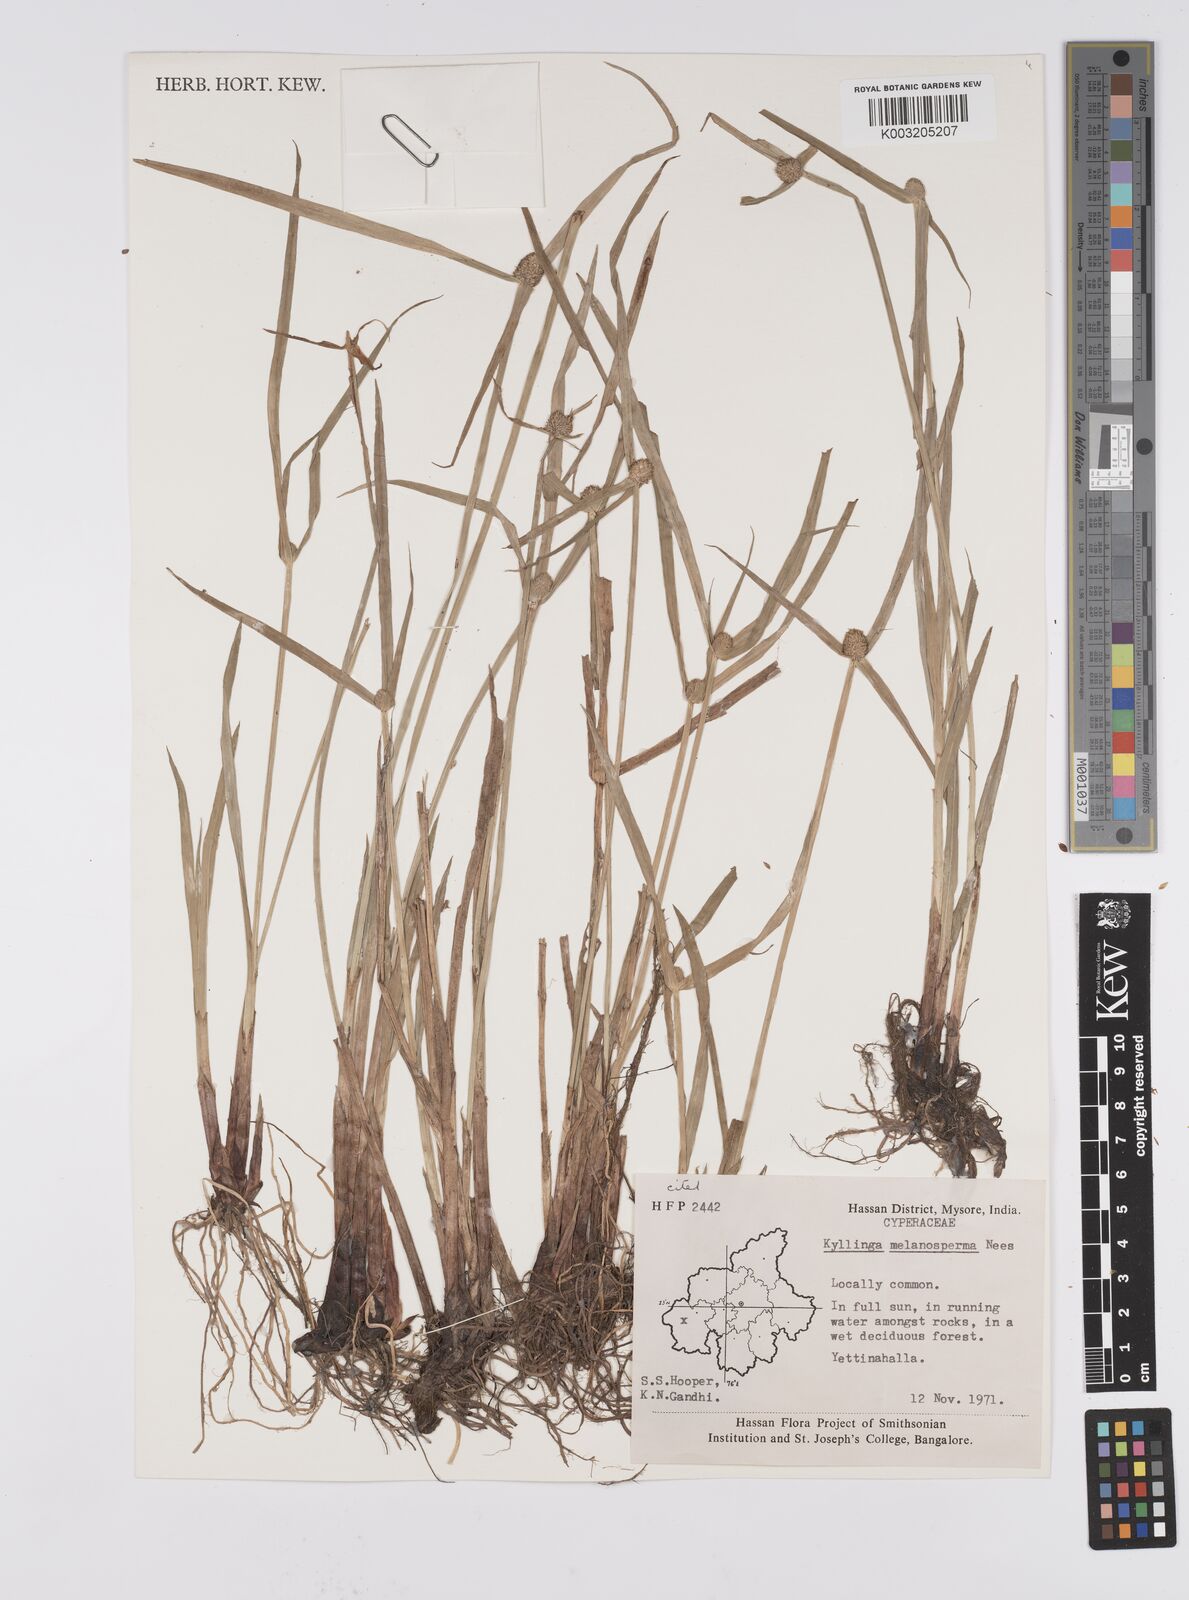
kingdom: Plantae
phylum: Tracheophyta
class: Liliopsida
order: Poales
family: Cyperaceae
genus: Cyperus
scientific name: Cyperus melanospermus
